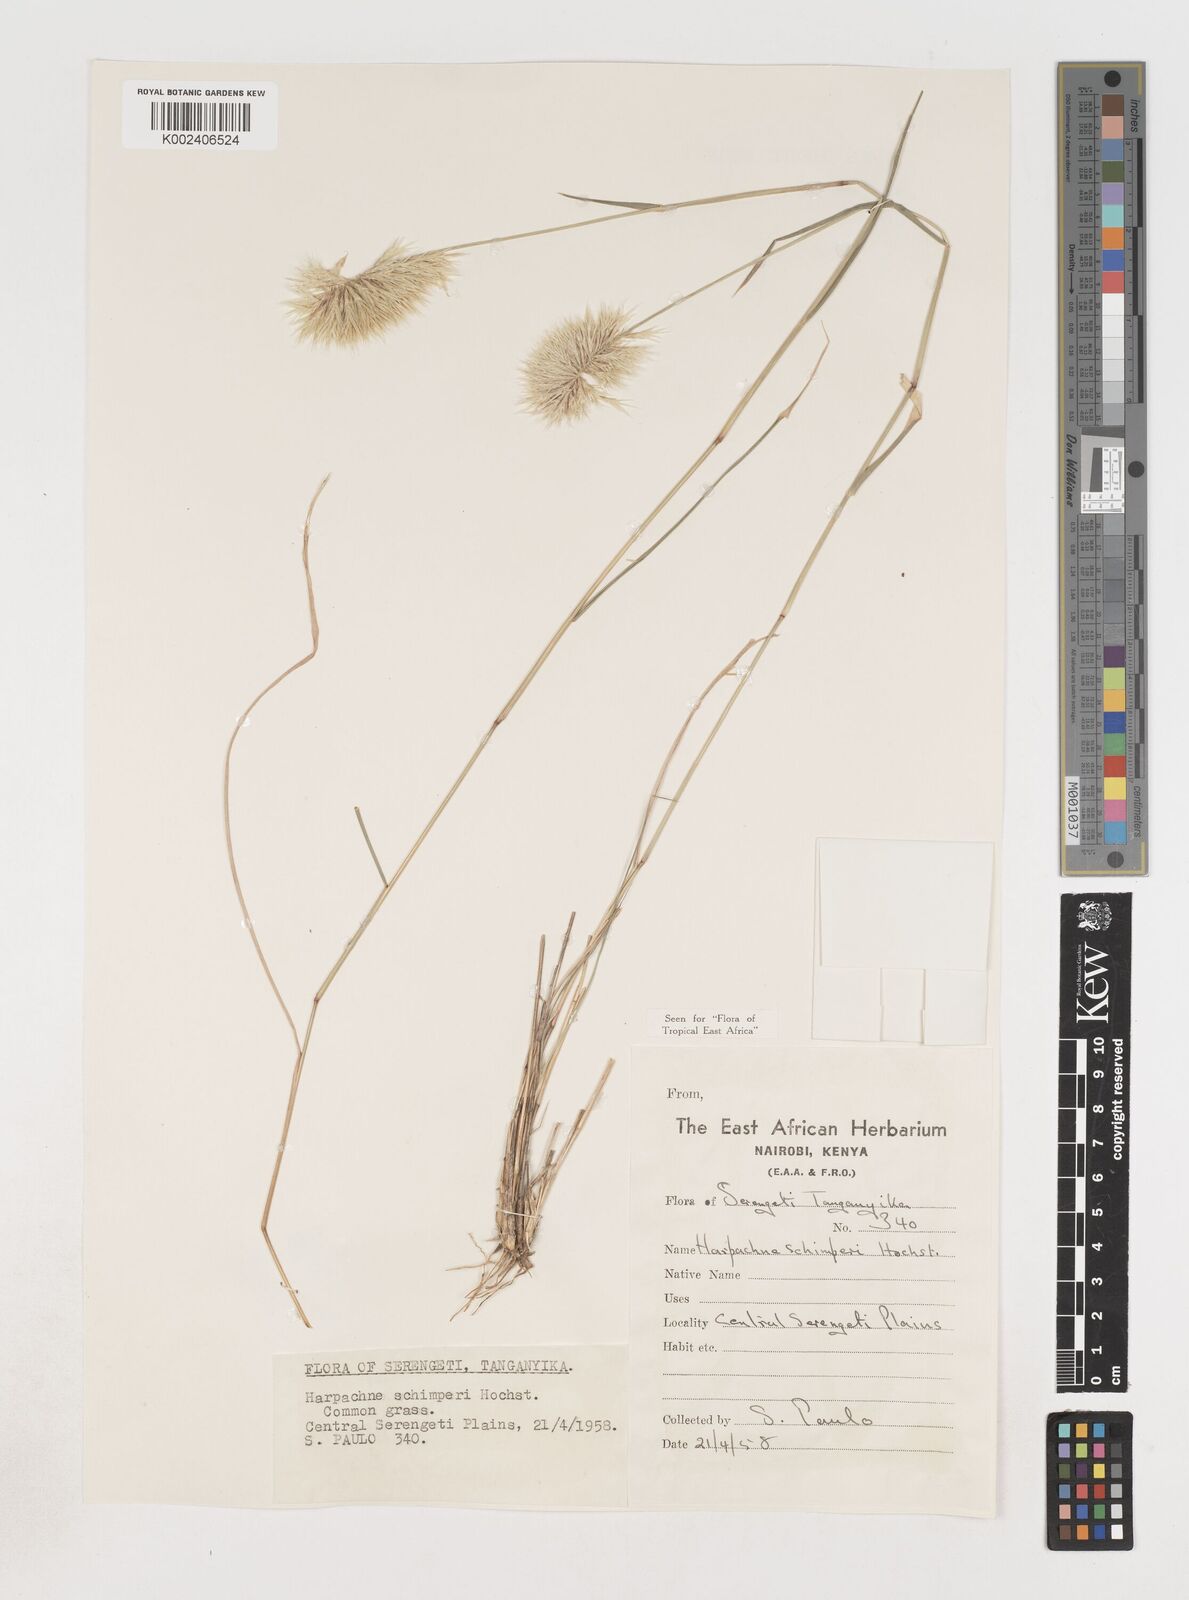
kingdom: Plantae
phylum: Tracheophyta
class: Liliopsida
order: Poales
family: Poaceae
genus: Harpachne
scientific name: Harpachne schimperi
